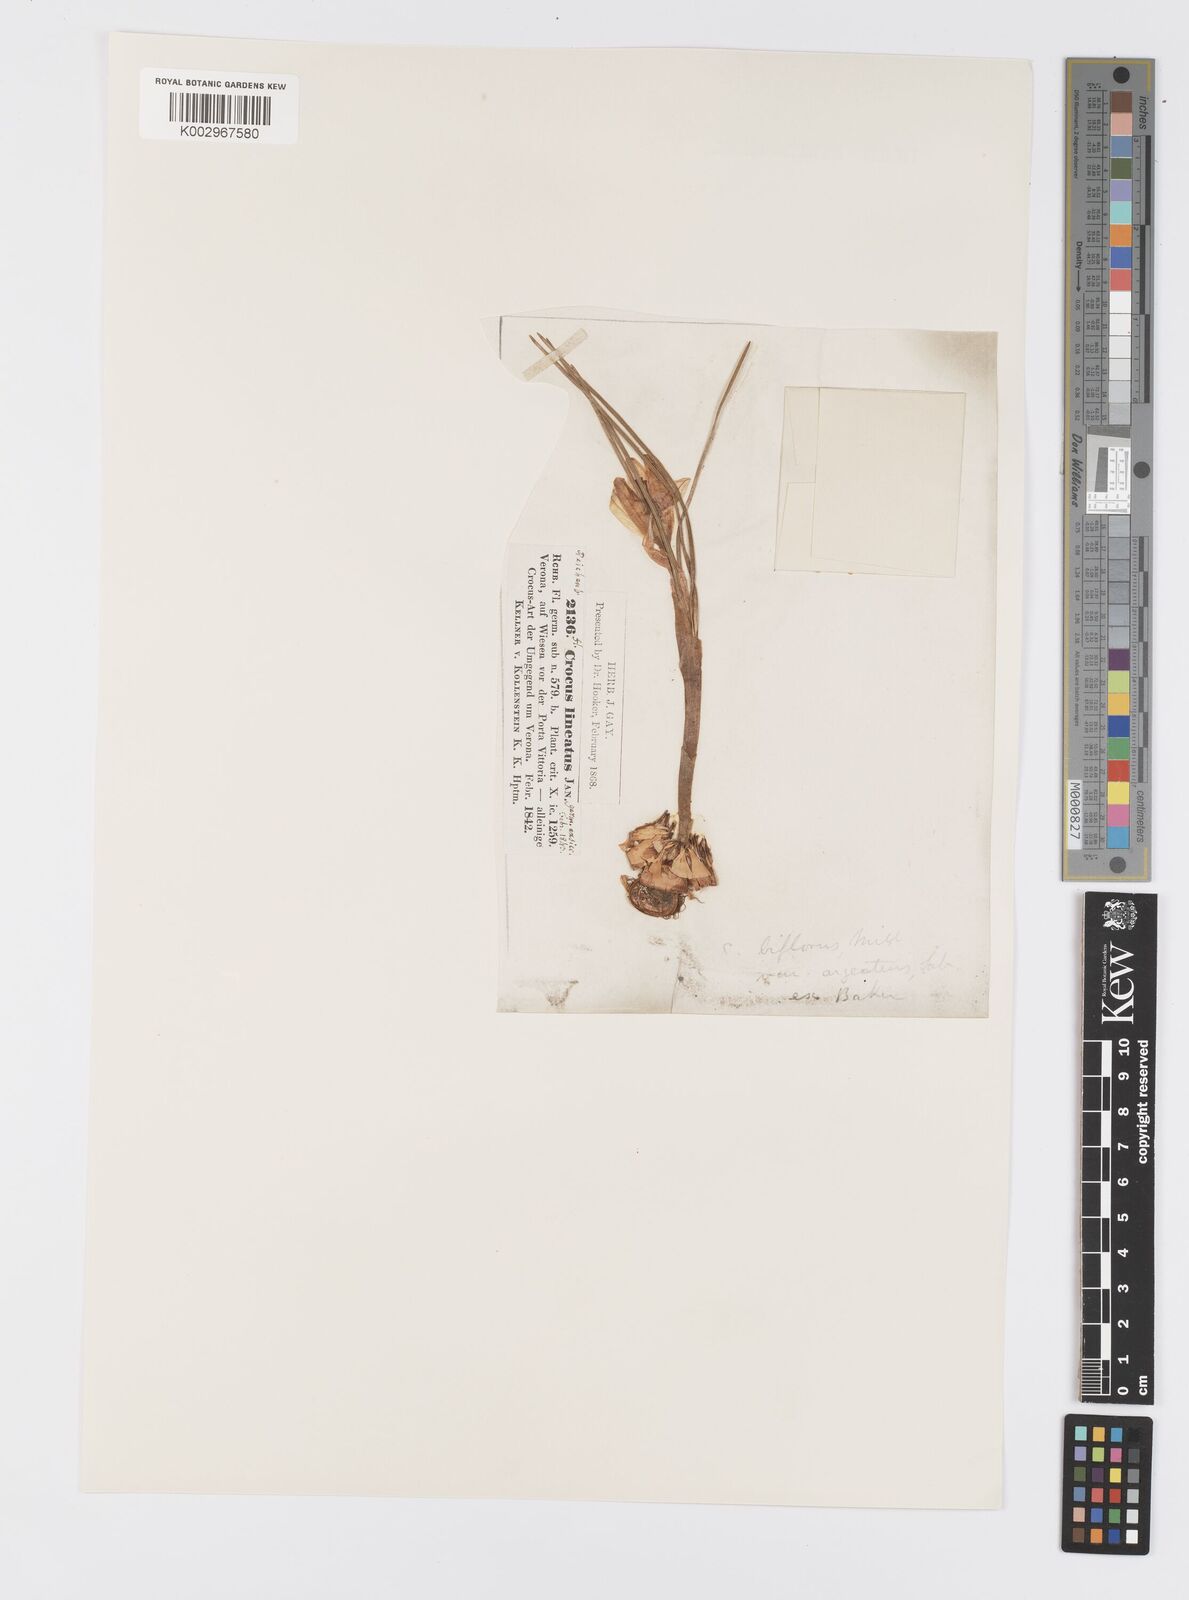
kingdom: Plantae
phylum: Tracheophyta
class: Liliopsida
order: Asparagales
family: Iridaceae
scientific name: Iridaceae
